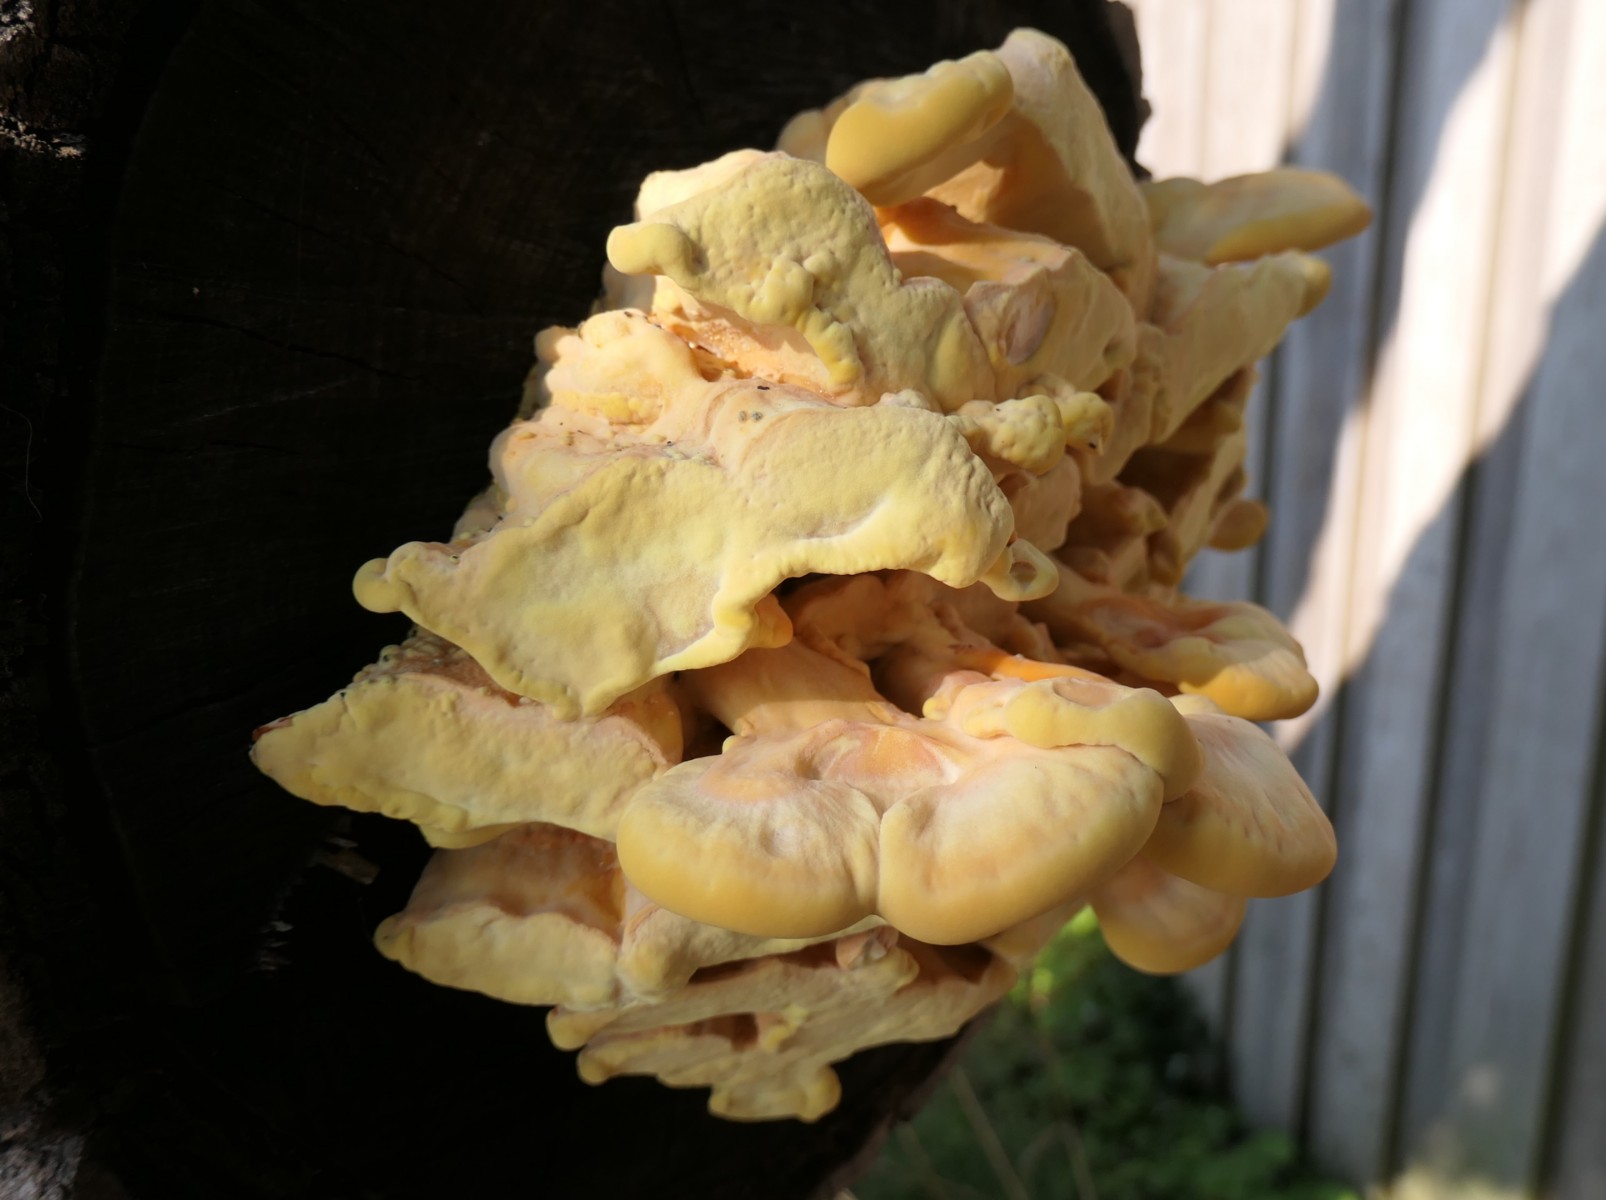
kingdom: Fungi
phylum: Basidiomycota
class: Agaricomycetes
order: Polyporales
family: Laetiporaceae
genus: Laetiporus
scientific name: Laetiporus sulphureus
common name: svovlporesvamp
